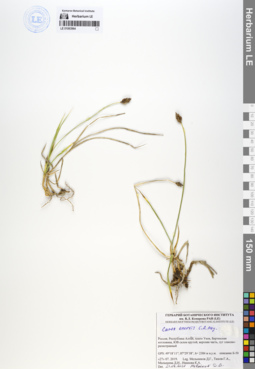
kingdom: Plantae
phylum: Tracheophyta
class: Liliopsida
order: Poales
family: Cyperaceae
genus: Carex
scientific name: Carex enervis
